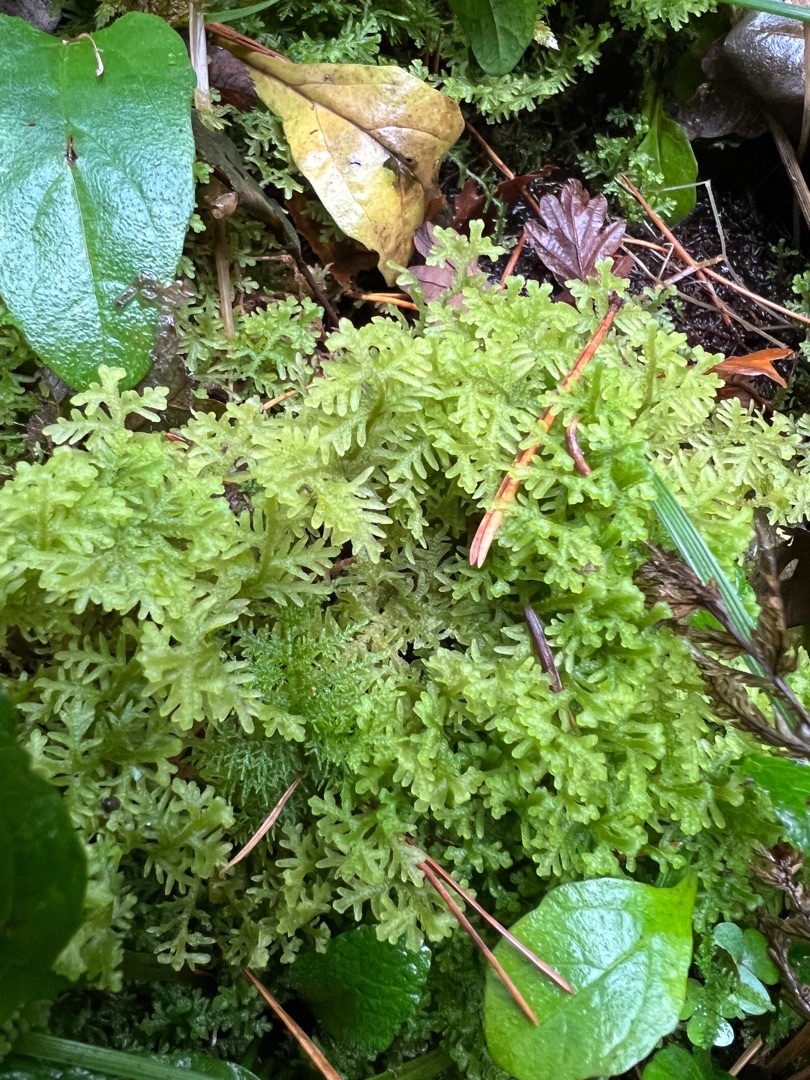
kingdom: Plantae
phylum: Marchantiophyta
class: Jungermanniopsida
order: Jungermanniales
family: Trichocoleaceae
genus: Trichocolea
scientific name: Trichocolea tomentella
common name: Bleg dunmos
